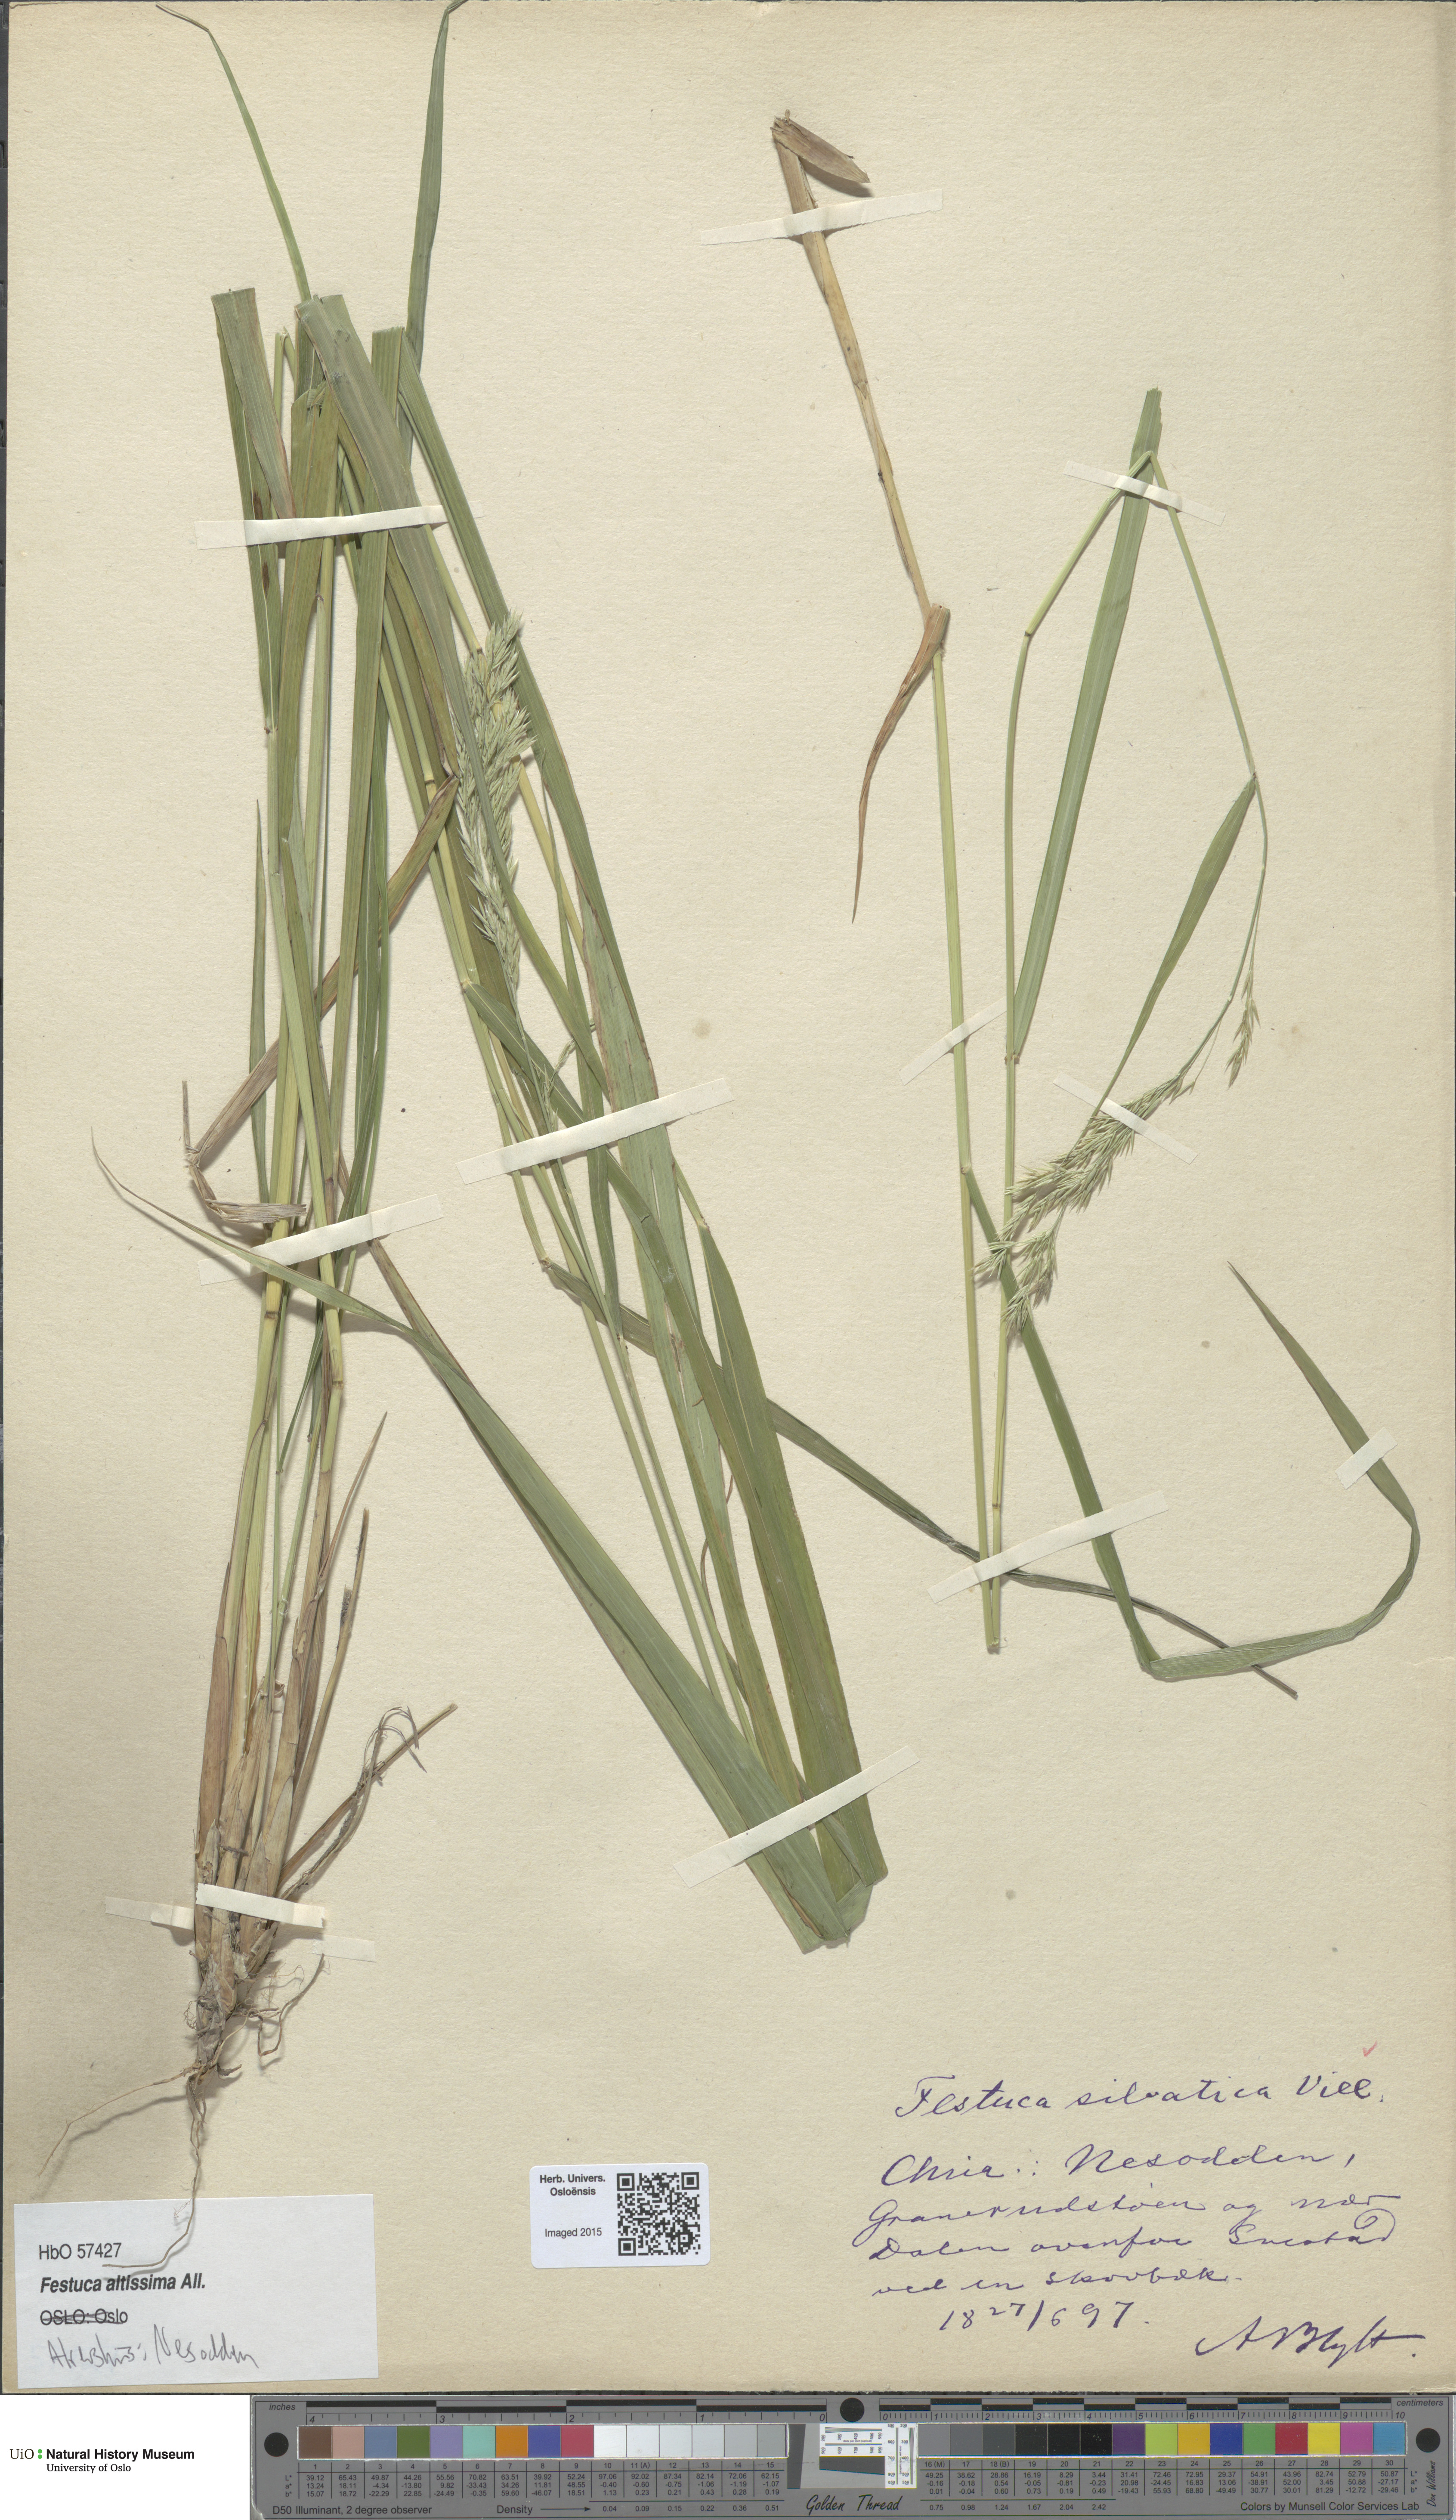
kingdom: Plantae
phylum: Tracheophyta
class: Liliopsida
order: Poales
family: Poaceae
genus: Festuca
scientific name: Festuca altissima
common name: Wood fescue
